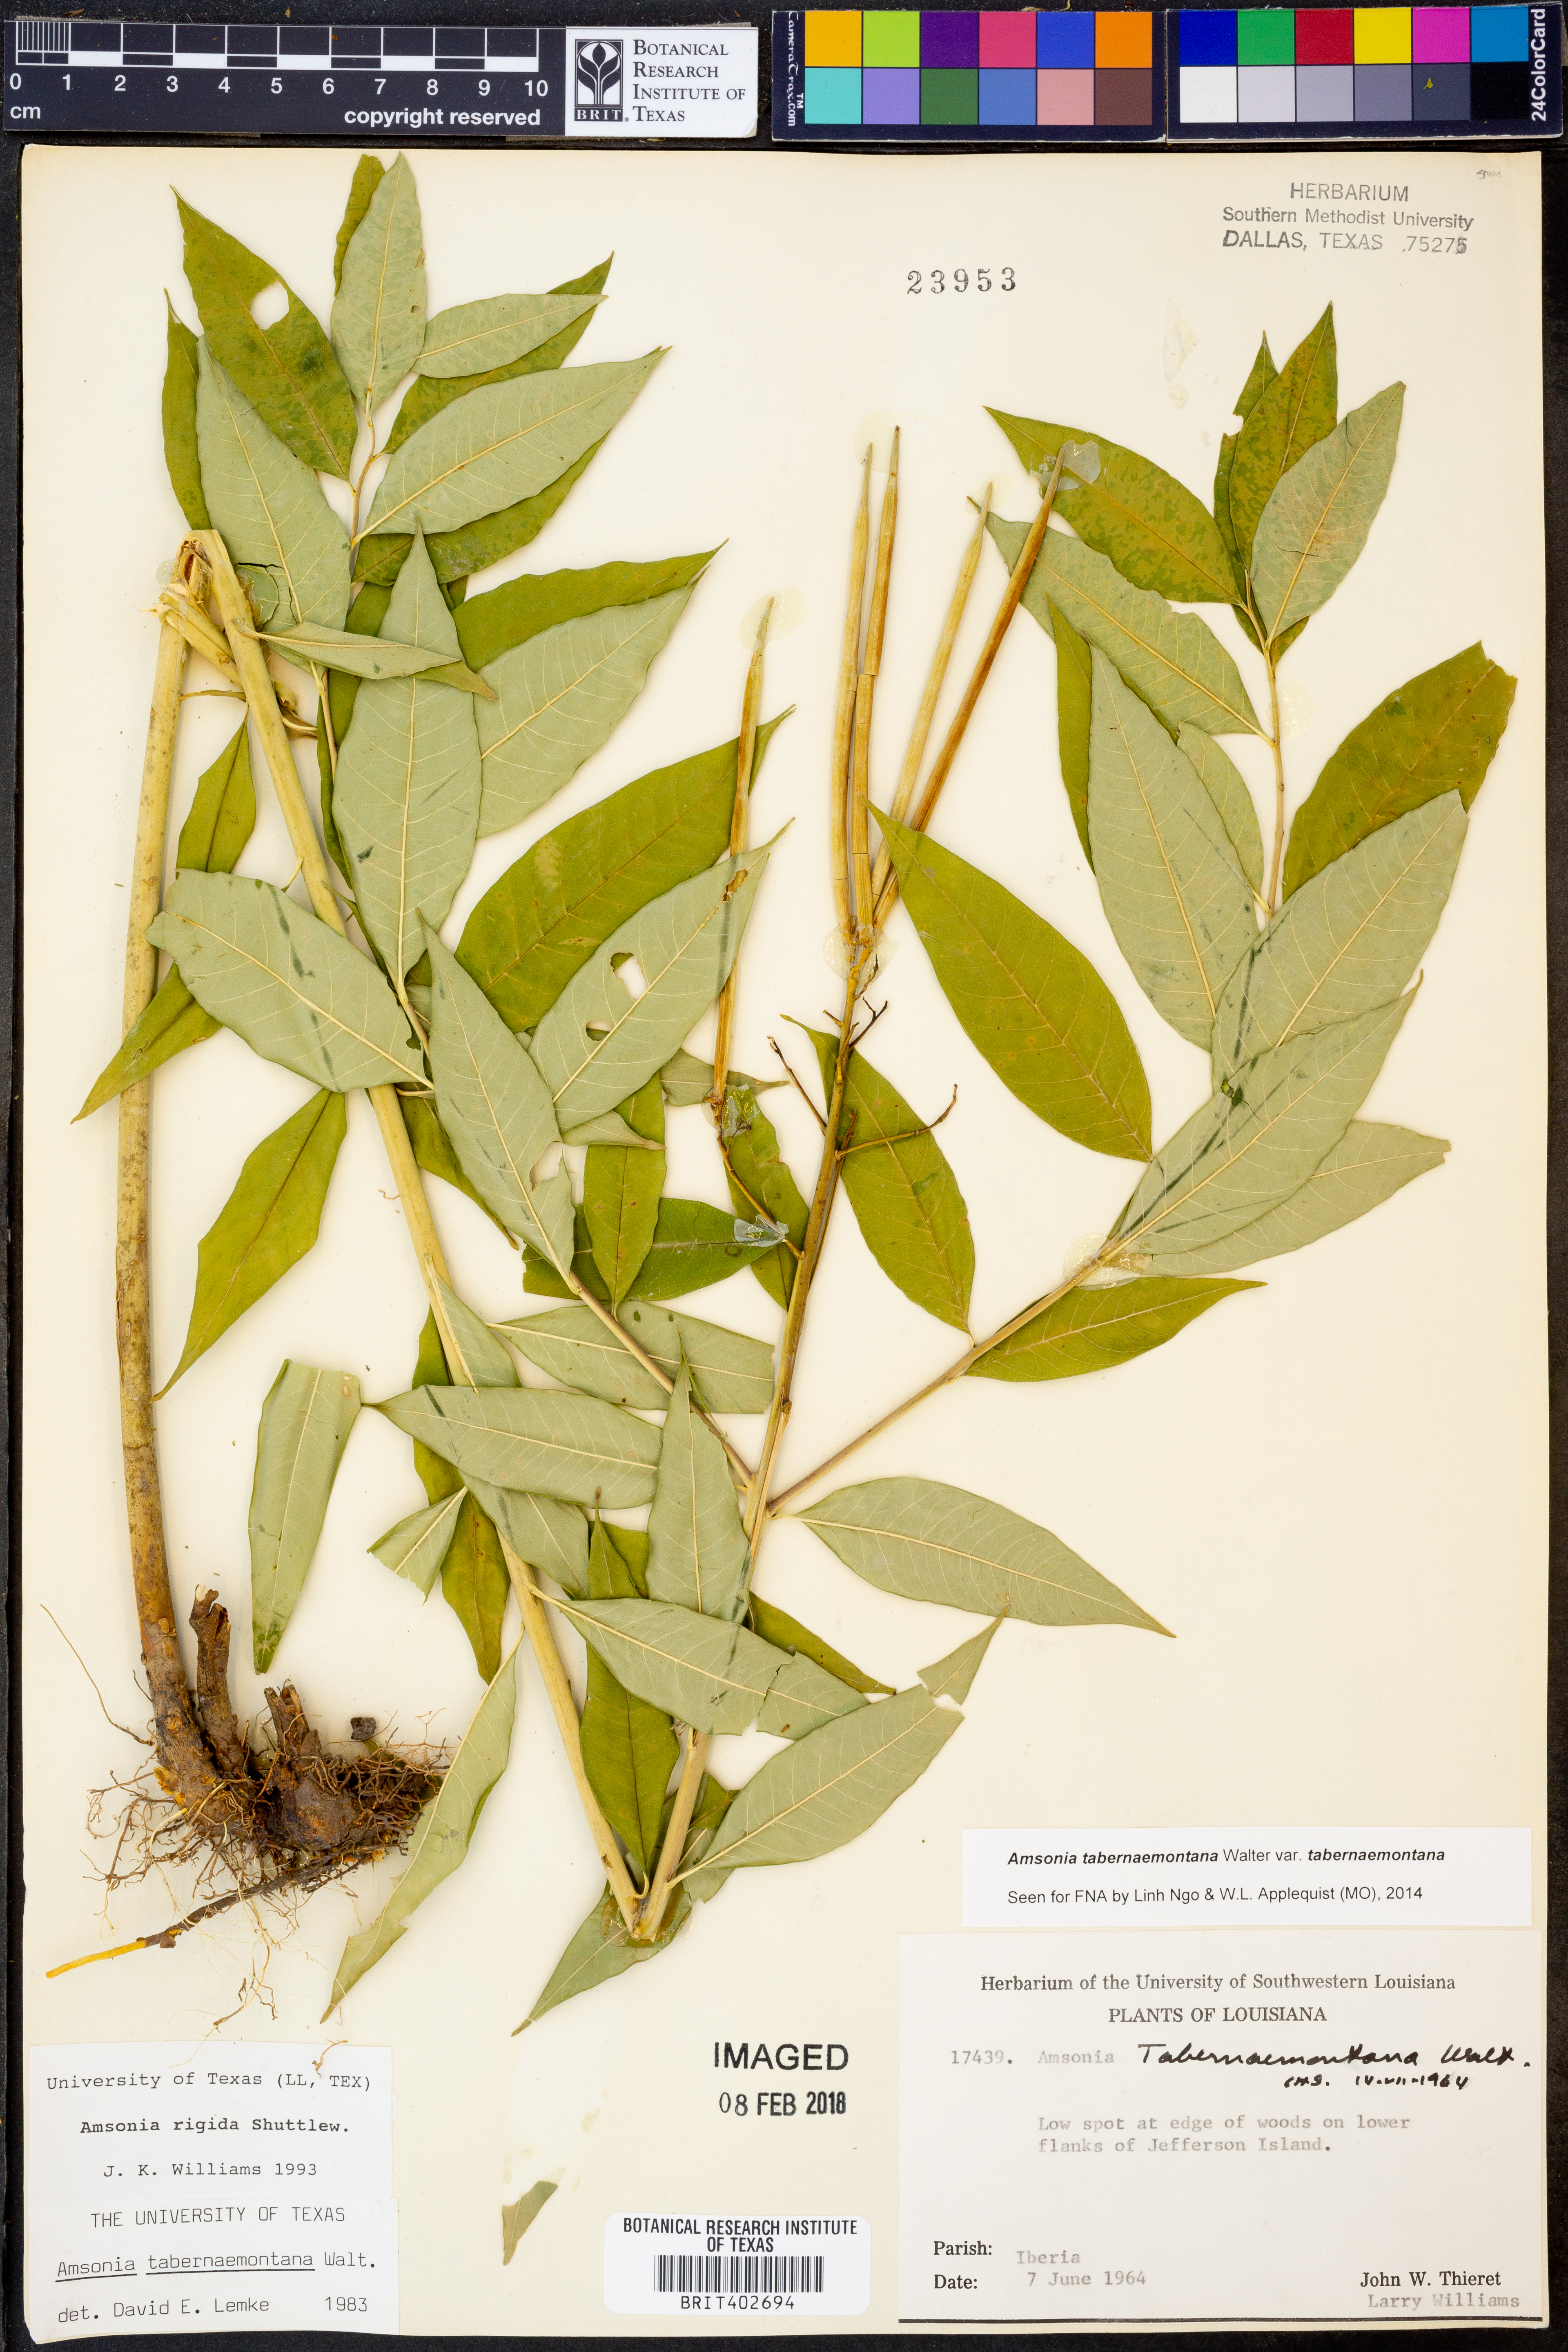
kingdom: Plantae
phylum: Tracheophyta
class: Magnoliopsida
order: Gentianales
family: Apocynaceae
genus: Amsonia
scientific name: Amsonia tabernaemontana
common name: Texas-star
